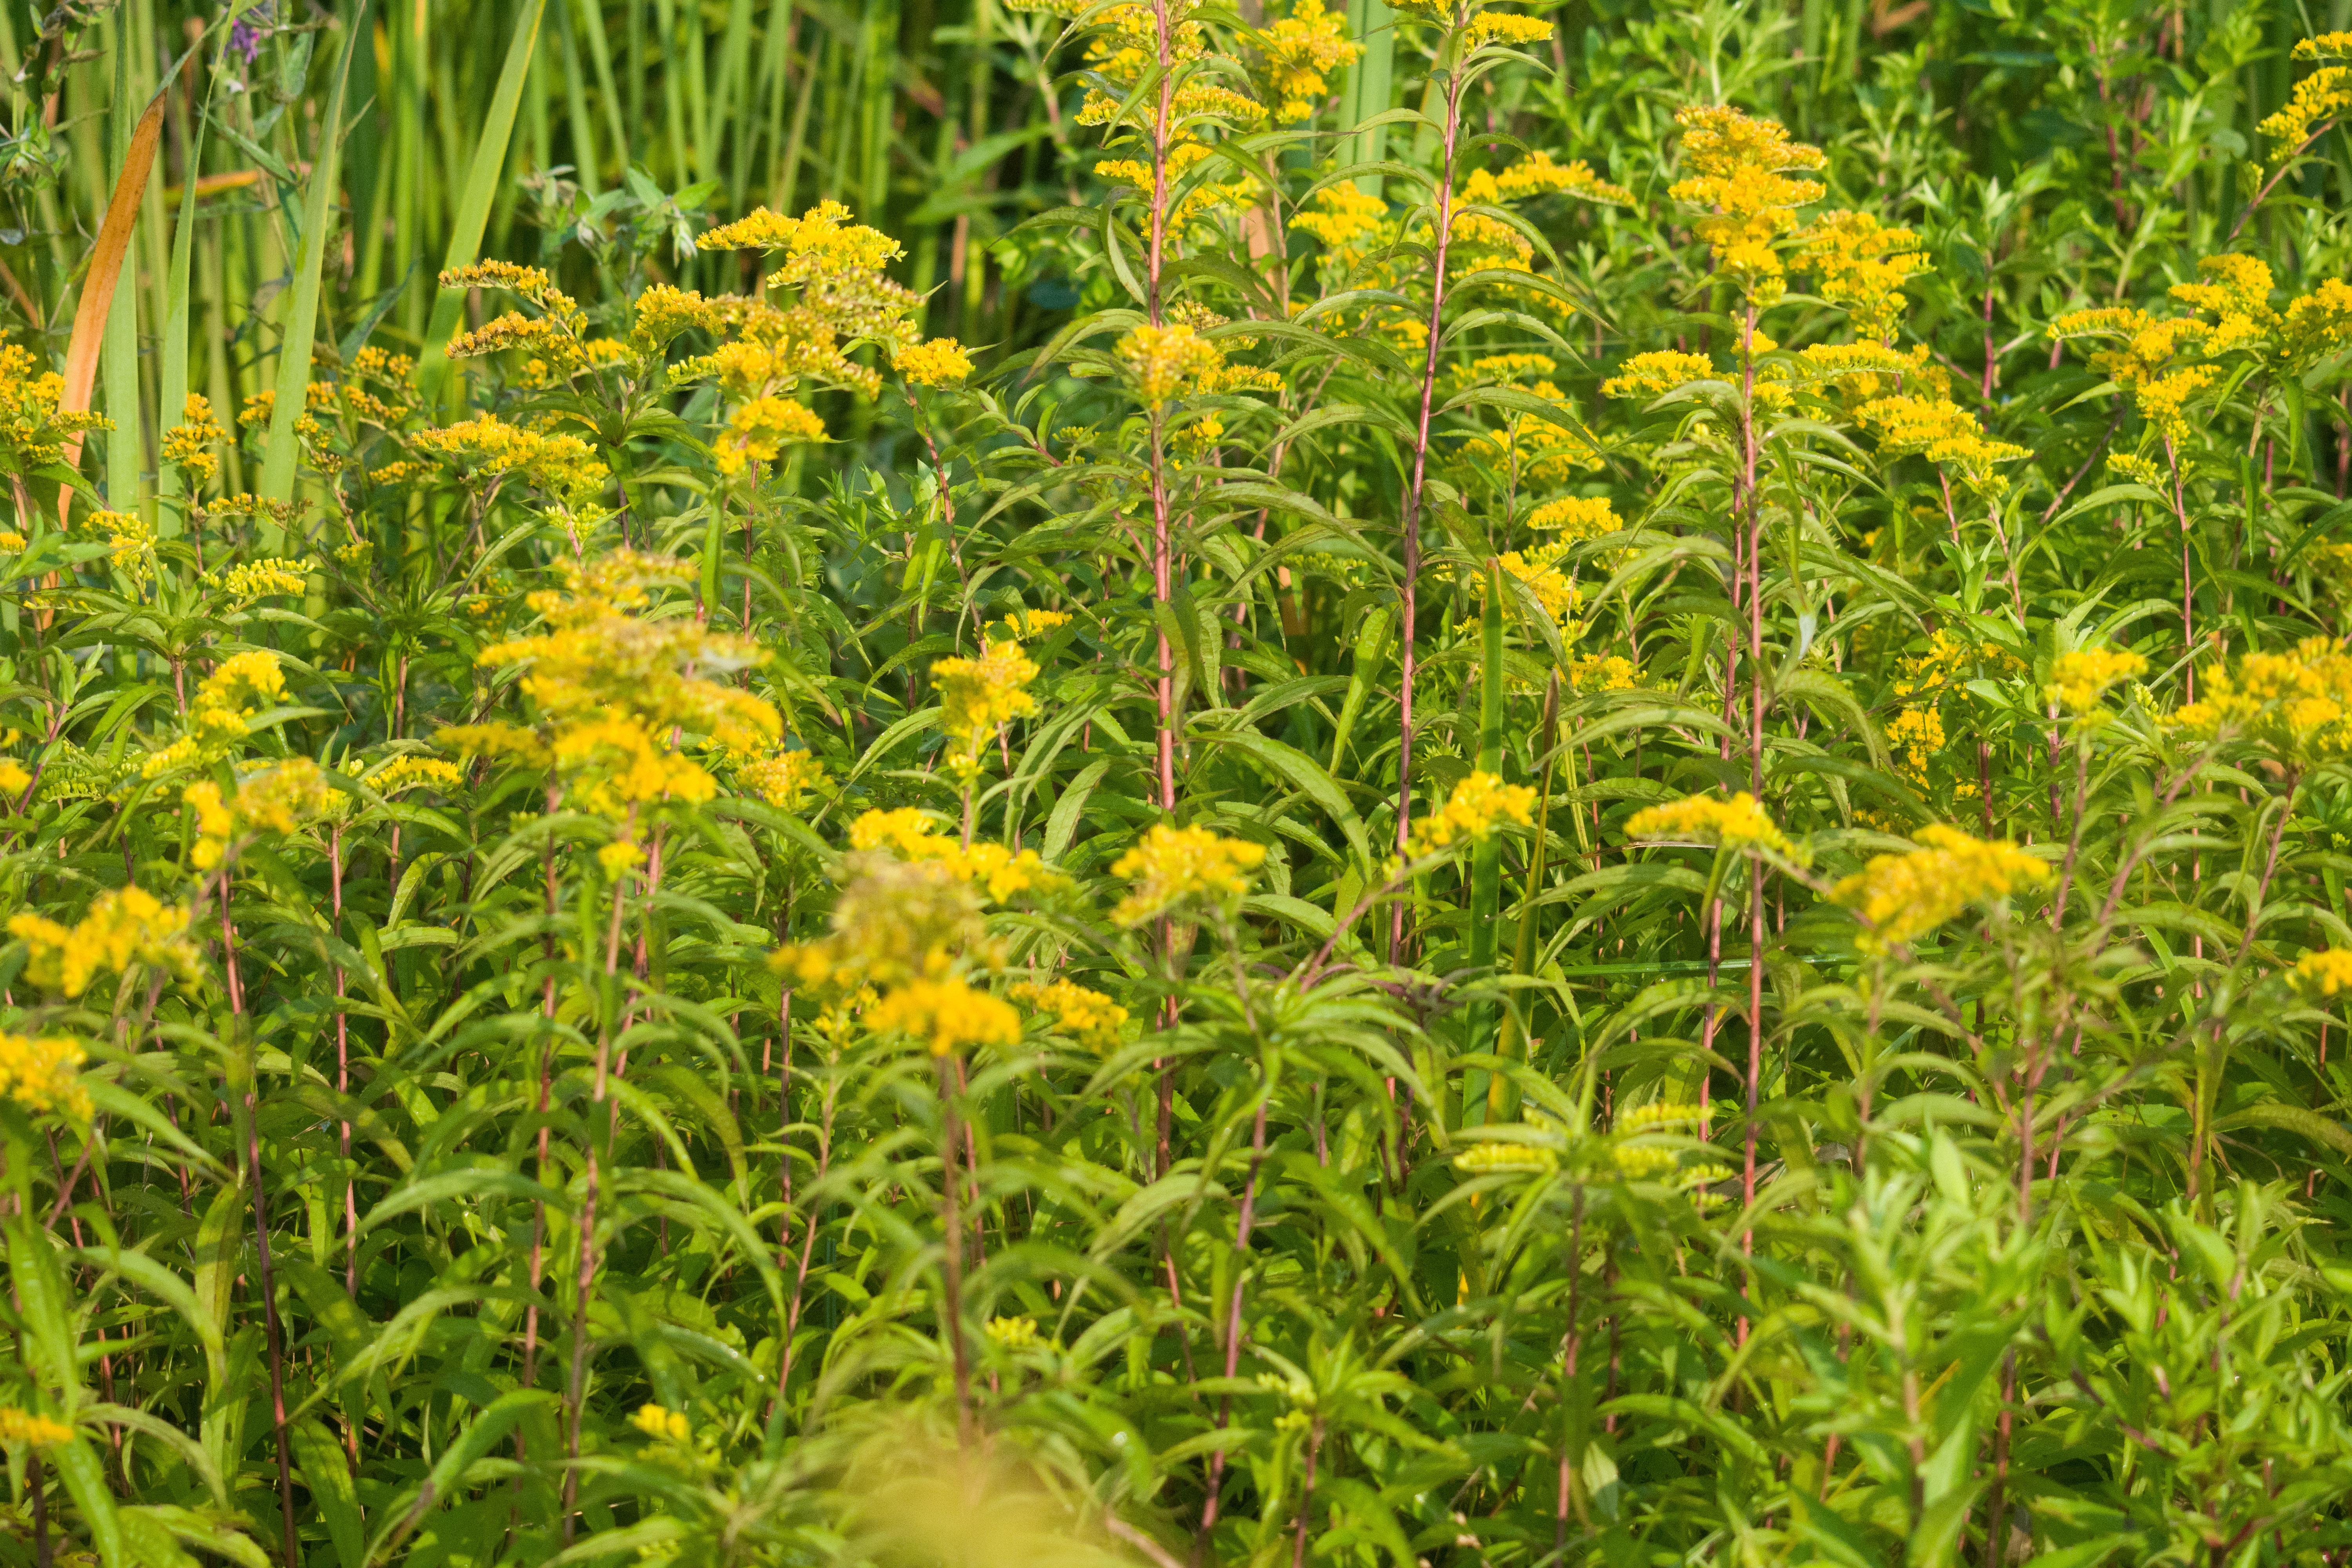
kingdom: Plantae
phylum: Tracheophyta
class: Magnoliopsida
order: Asterales
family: Asteraceae
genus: Solidago
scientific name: Solidago gigantea
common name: goldenrod
